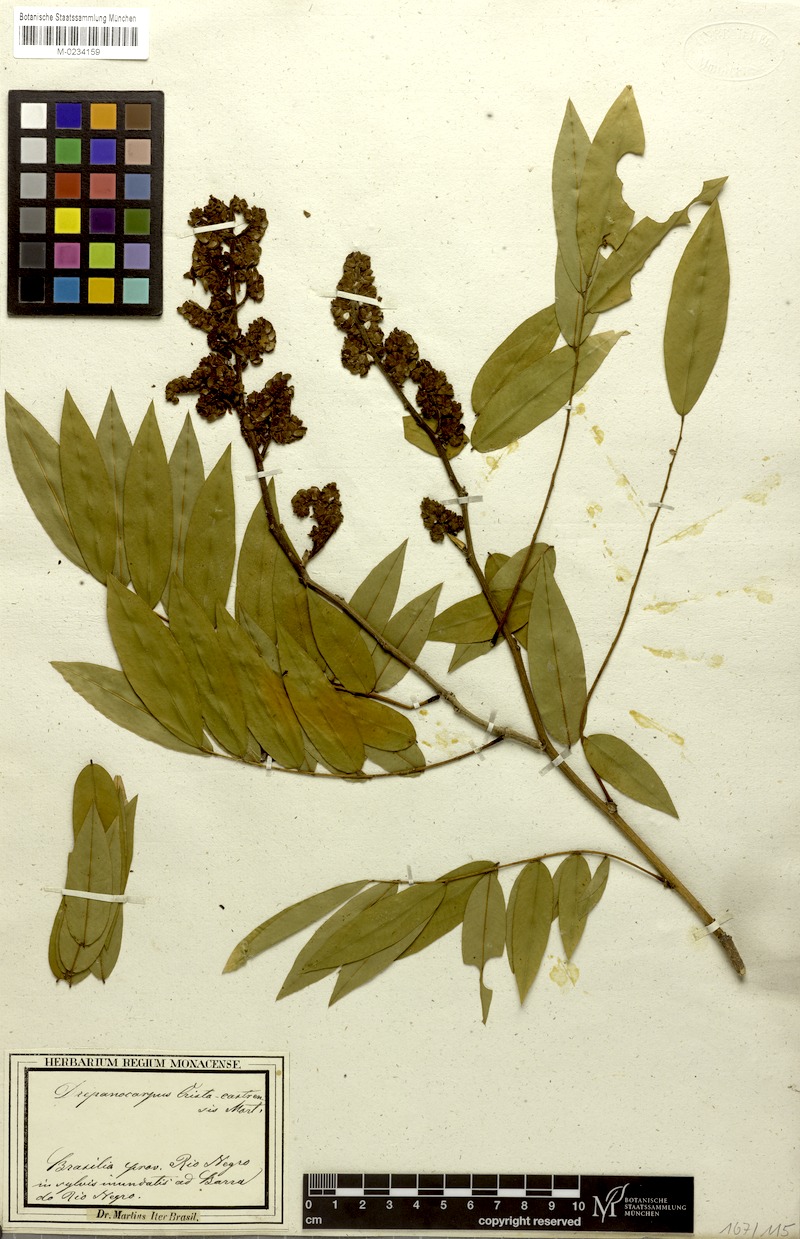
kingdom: Plantae
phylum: Tracheophyta
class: Magnoliopsida
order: Fabales
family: Fabaceae
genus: Machaerium
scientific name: Machaerium leiophyllum
